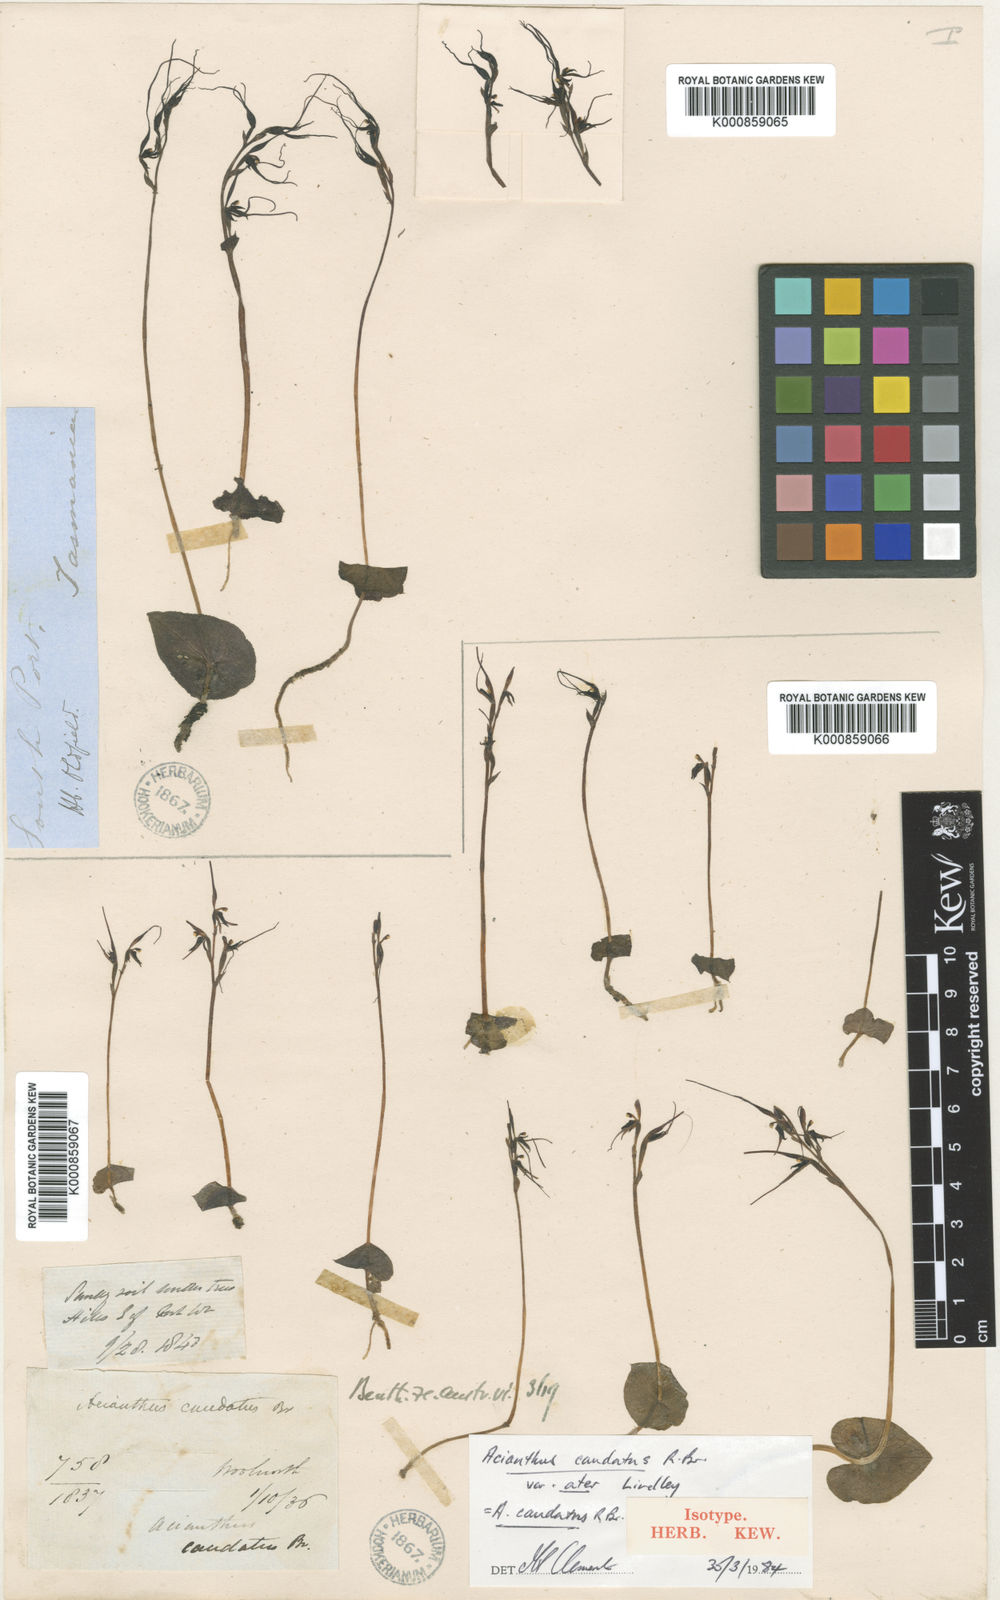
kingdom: Plantae
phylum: Tracheophyta
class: Liliopsida
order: Asparagales
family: Orchidaceae
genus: Acianthus
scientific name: Acianthus caudatus
